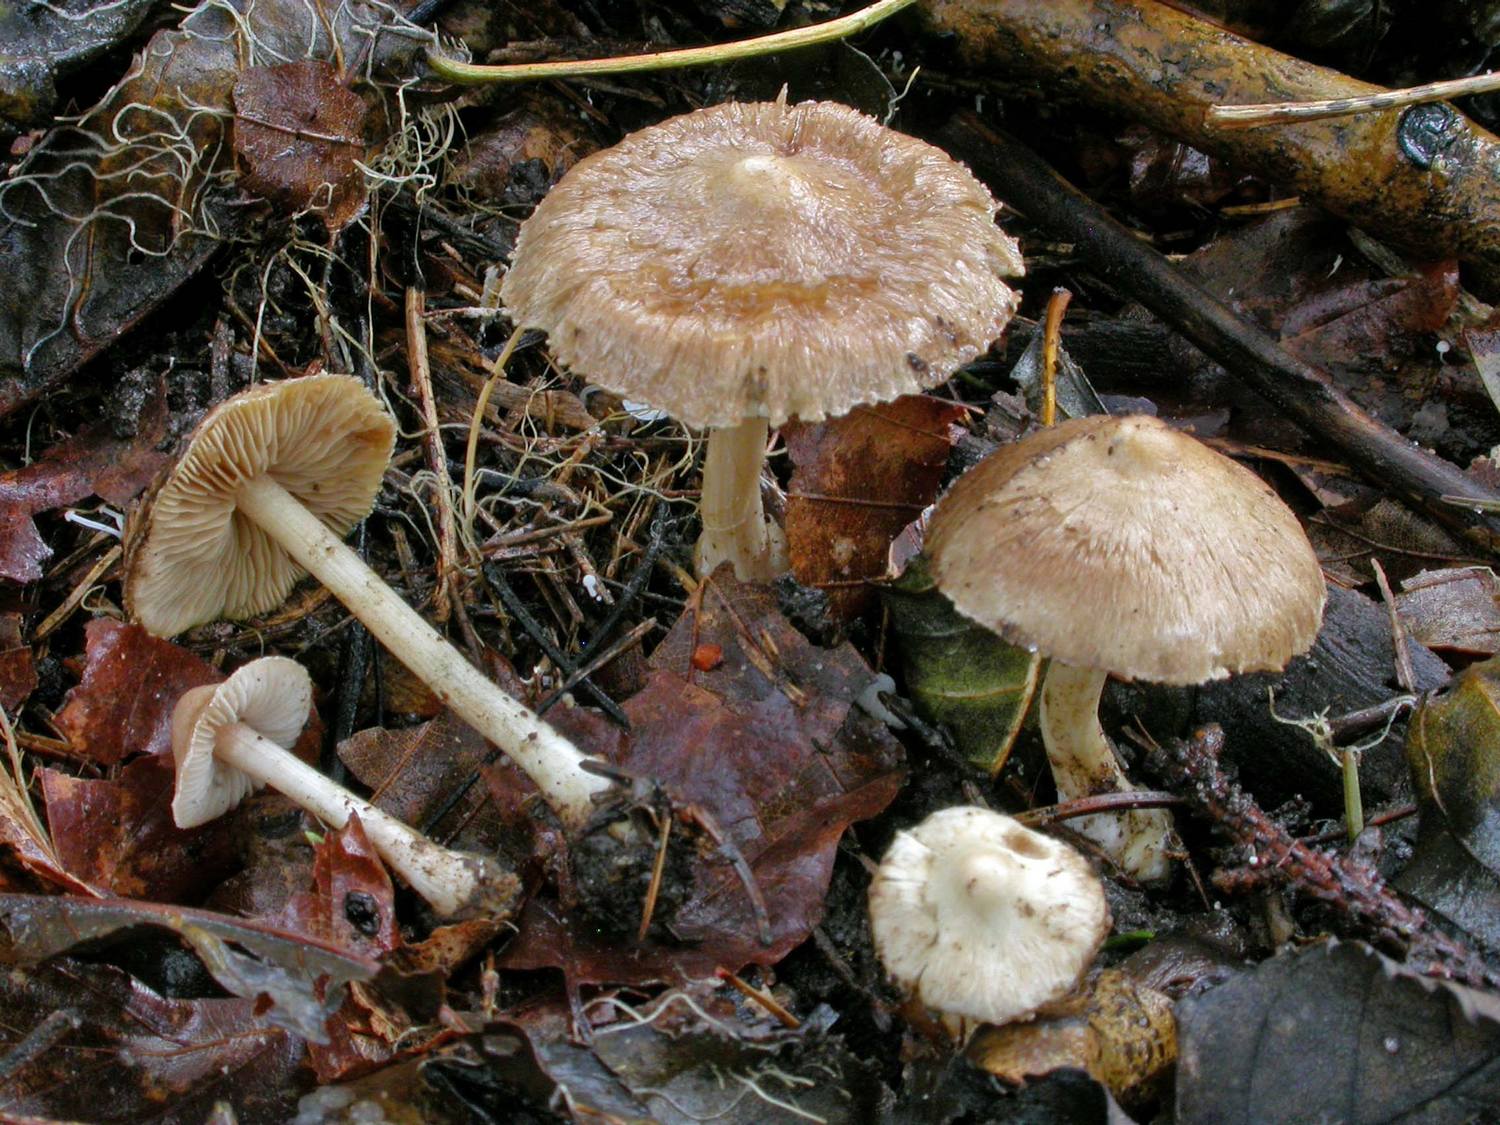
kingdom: Fungi
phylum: Basidiomycota
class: Agaricomycetes
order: Agaricales
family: Inocybaceae
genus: Inocybe
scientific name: Inocybe sindonia
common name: bleg trævlhat
